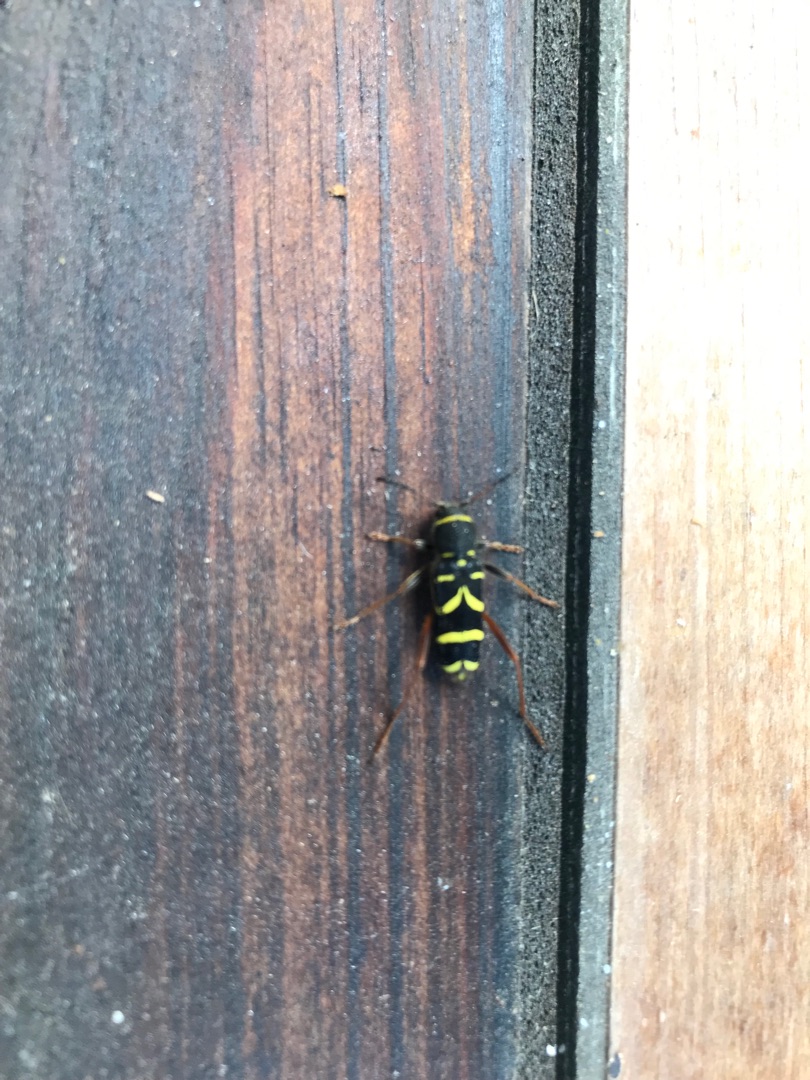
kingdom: Animalia
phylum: Arthropoda
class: Insecta
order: Coleoptera
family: Cerambycidae
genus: Clytus
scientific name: Clytus arietis
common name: Lille hvepsebuk
